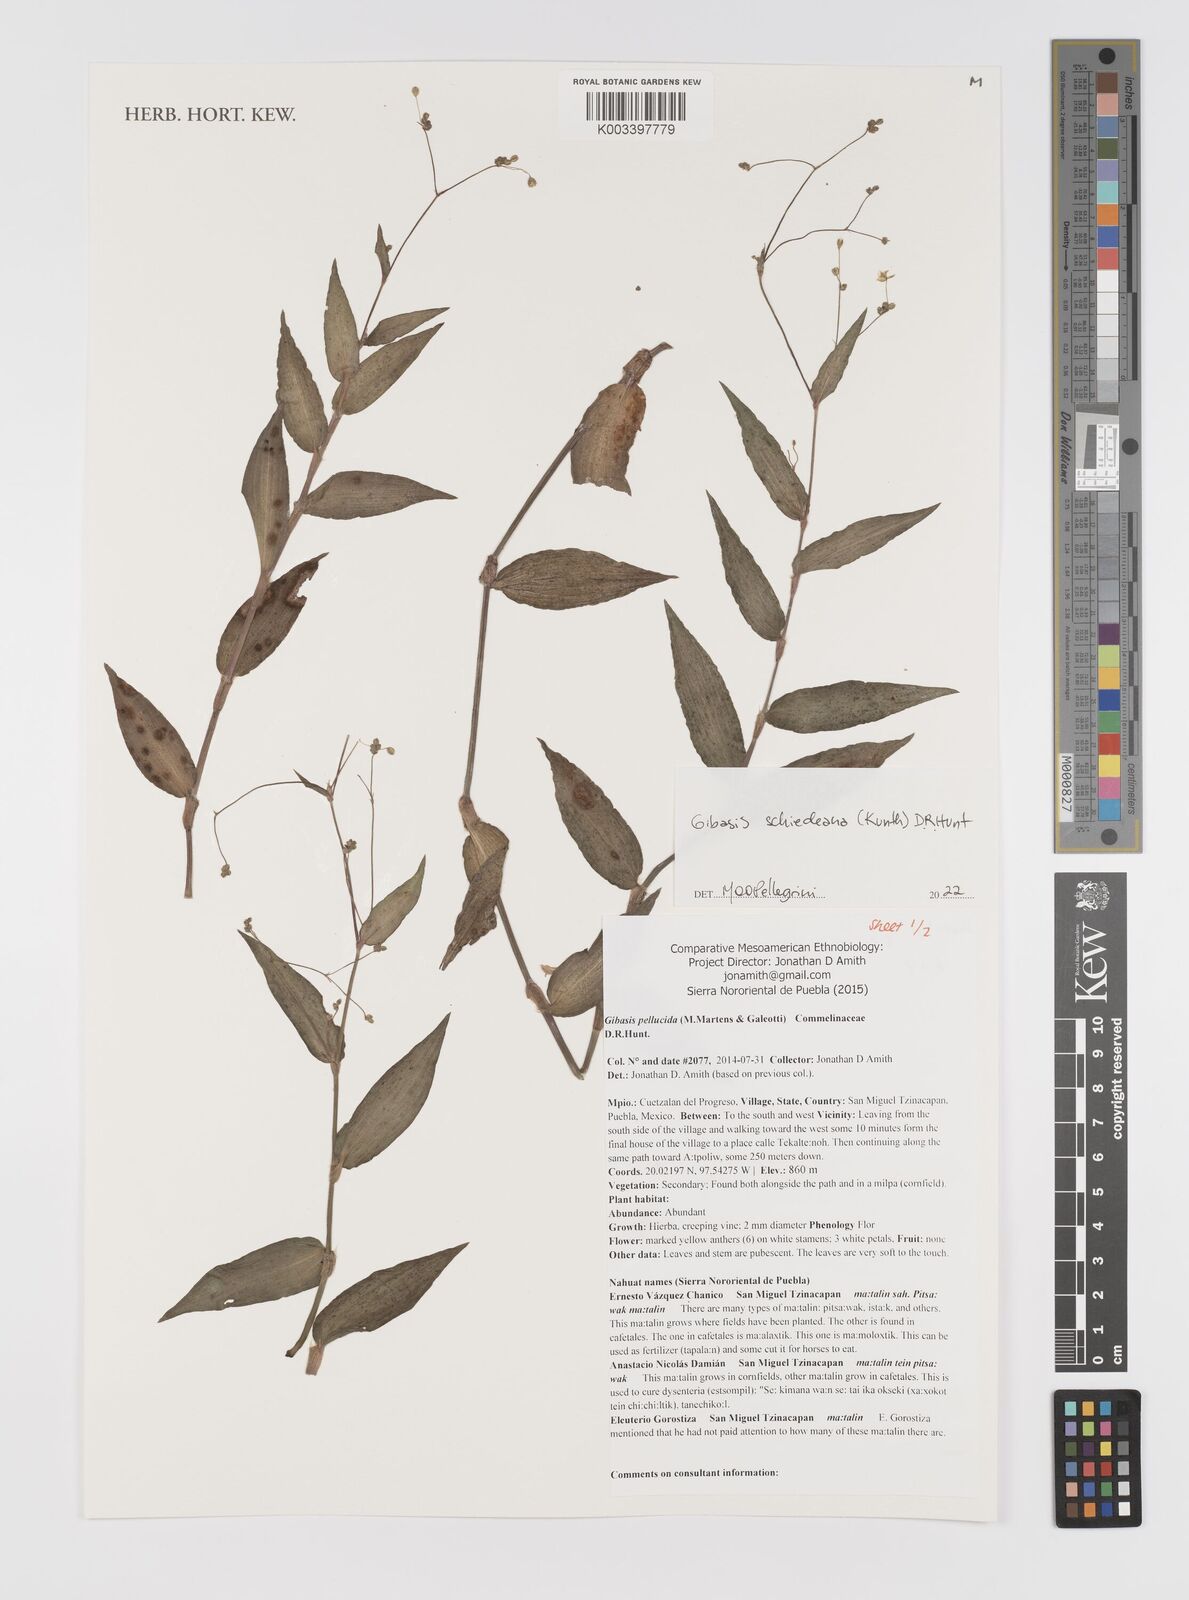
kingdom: Plantae
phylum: Tracheophyta
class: Liliopsida
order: Commelinales
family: Commelinaceae
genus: Gibasis
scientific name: Gibasis
